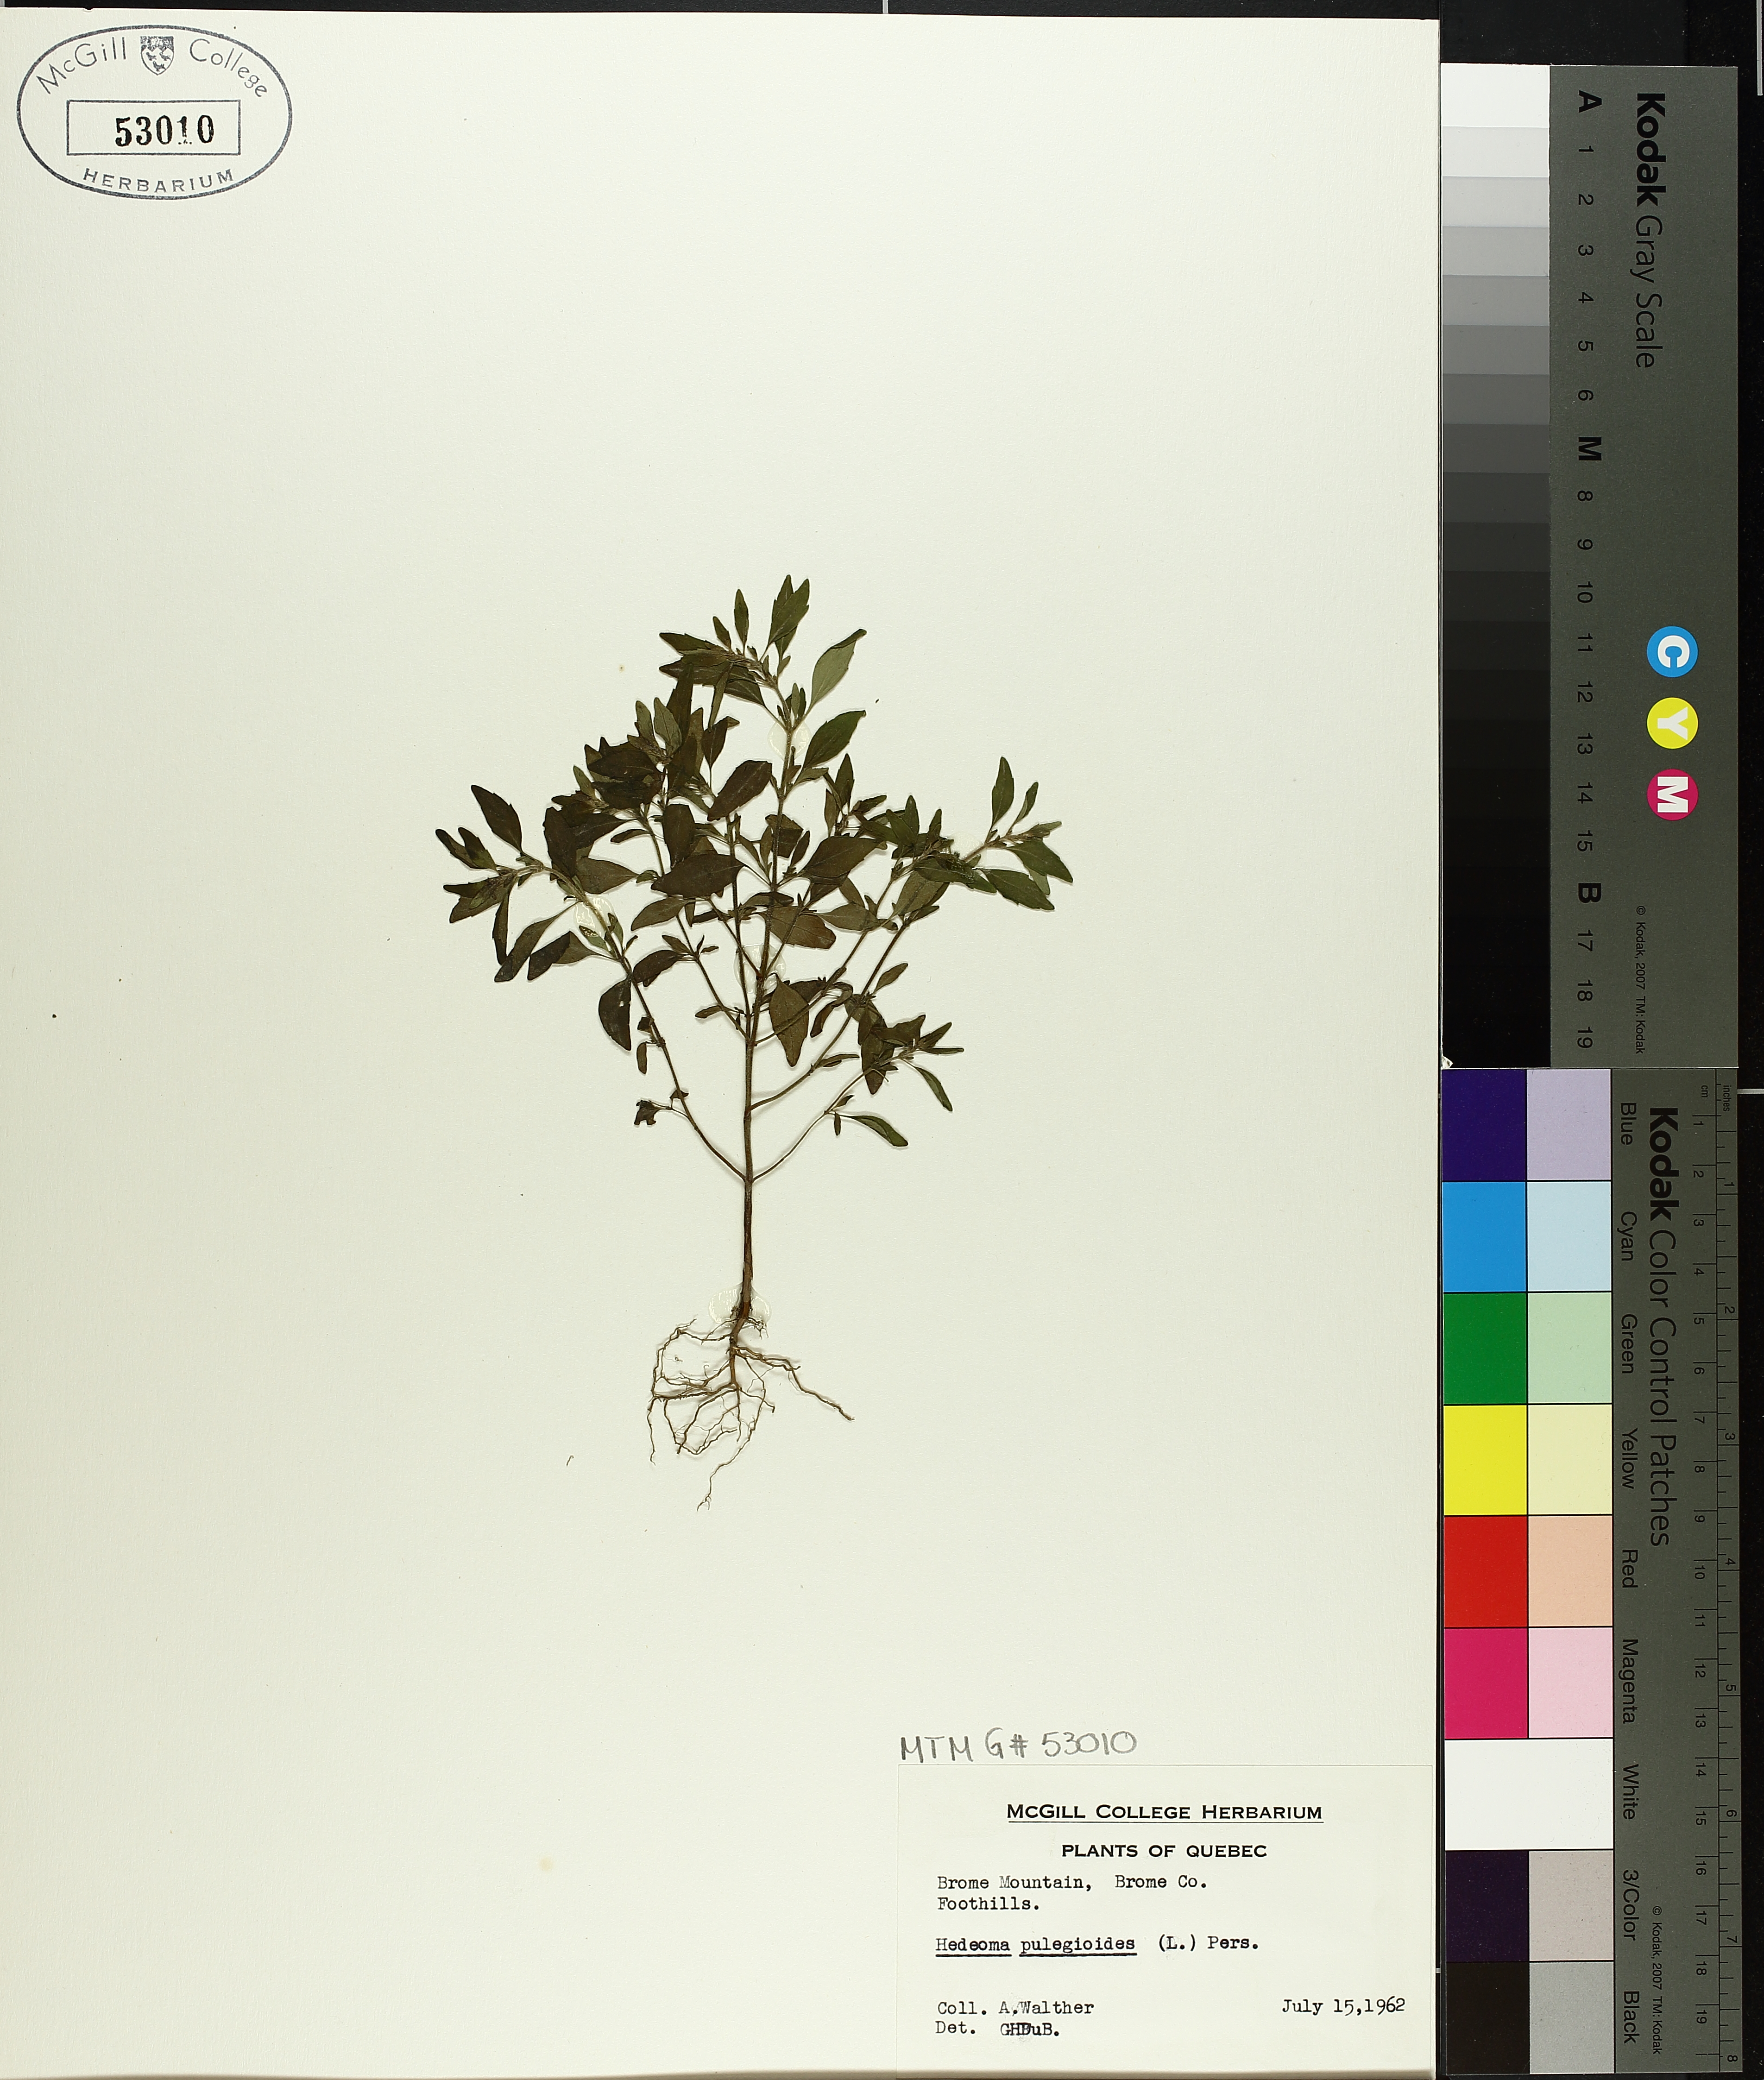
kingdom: Plantae
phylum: Tracheophyta
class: Magnoliopsida
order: Lamiales
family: Lamiaceae
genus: Hedeoma
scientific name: Hedeoma pulegioides
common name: American false pennyroyal
